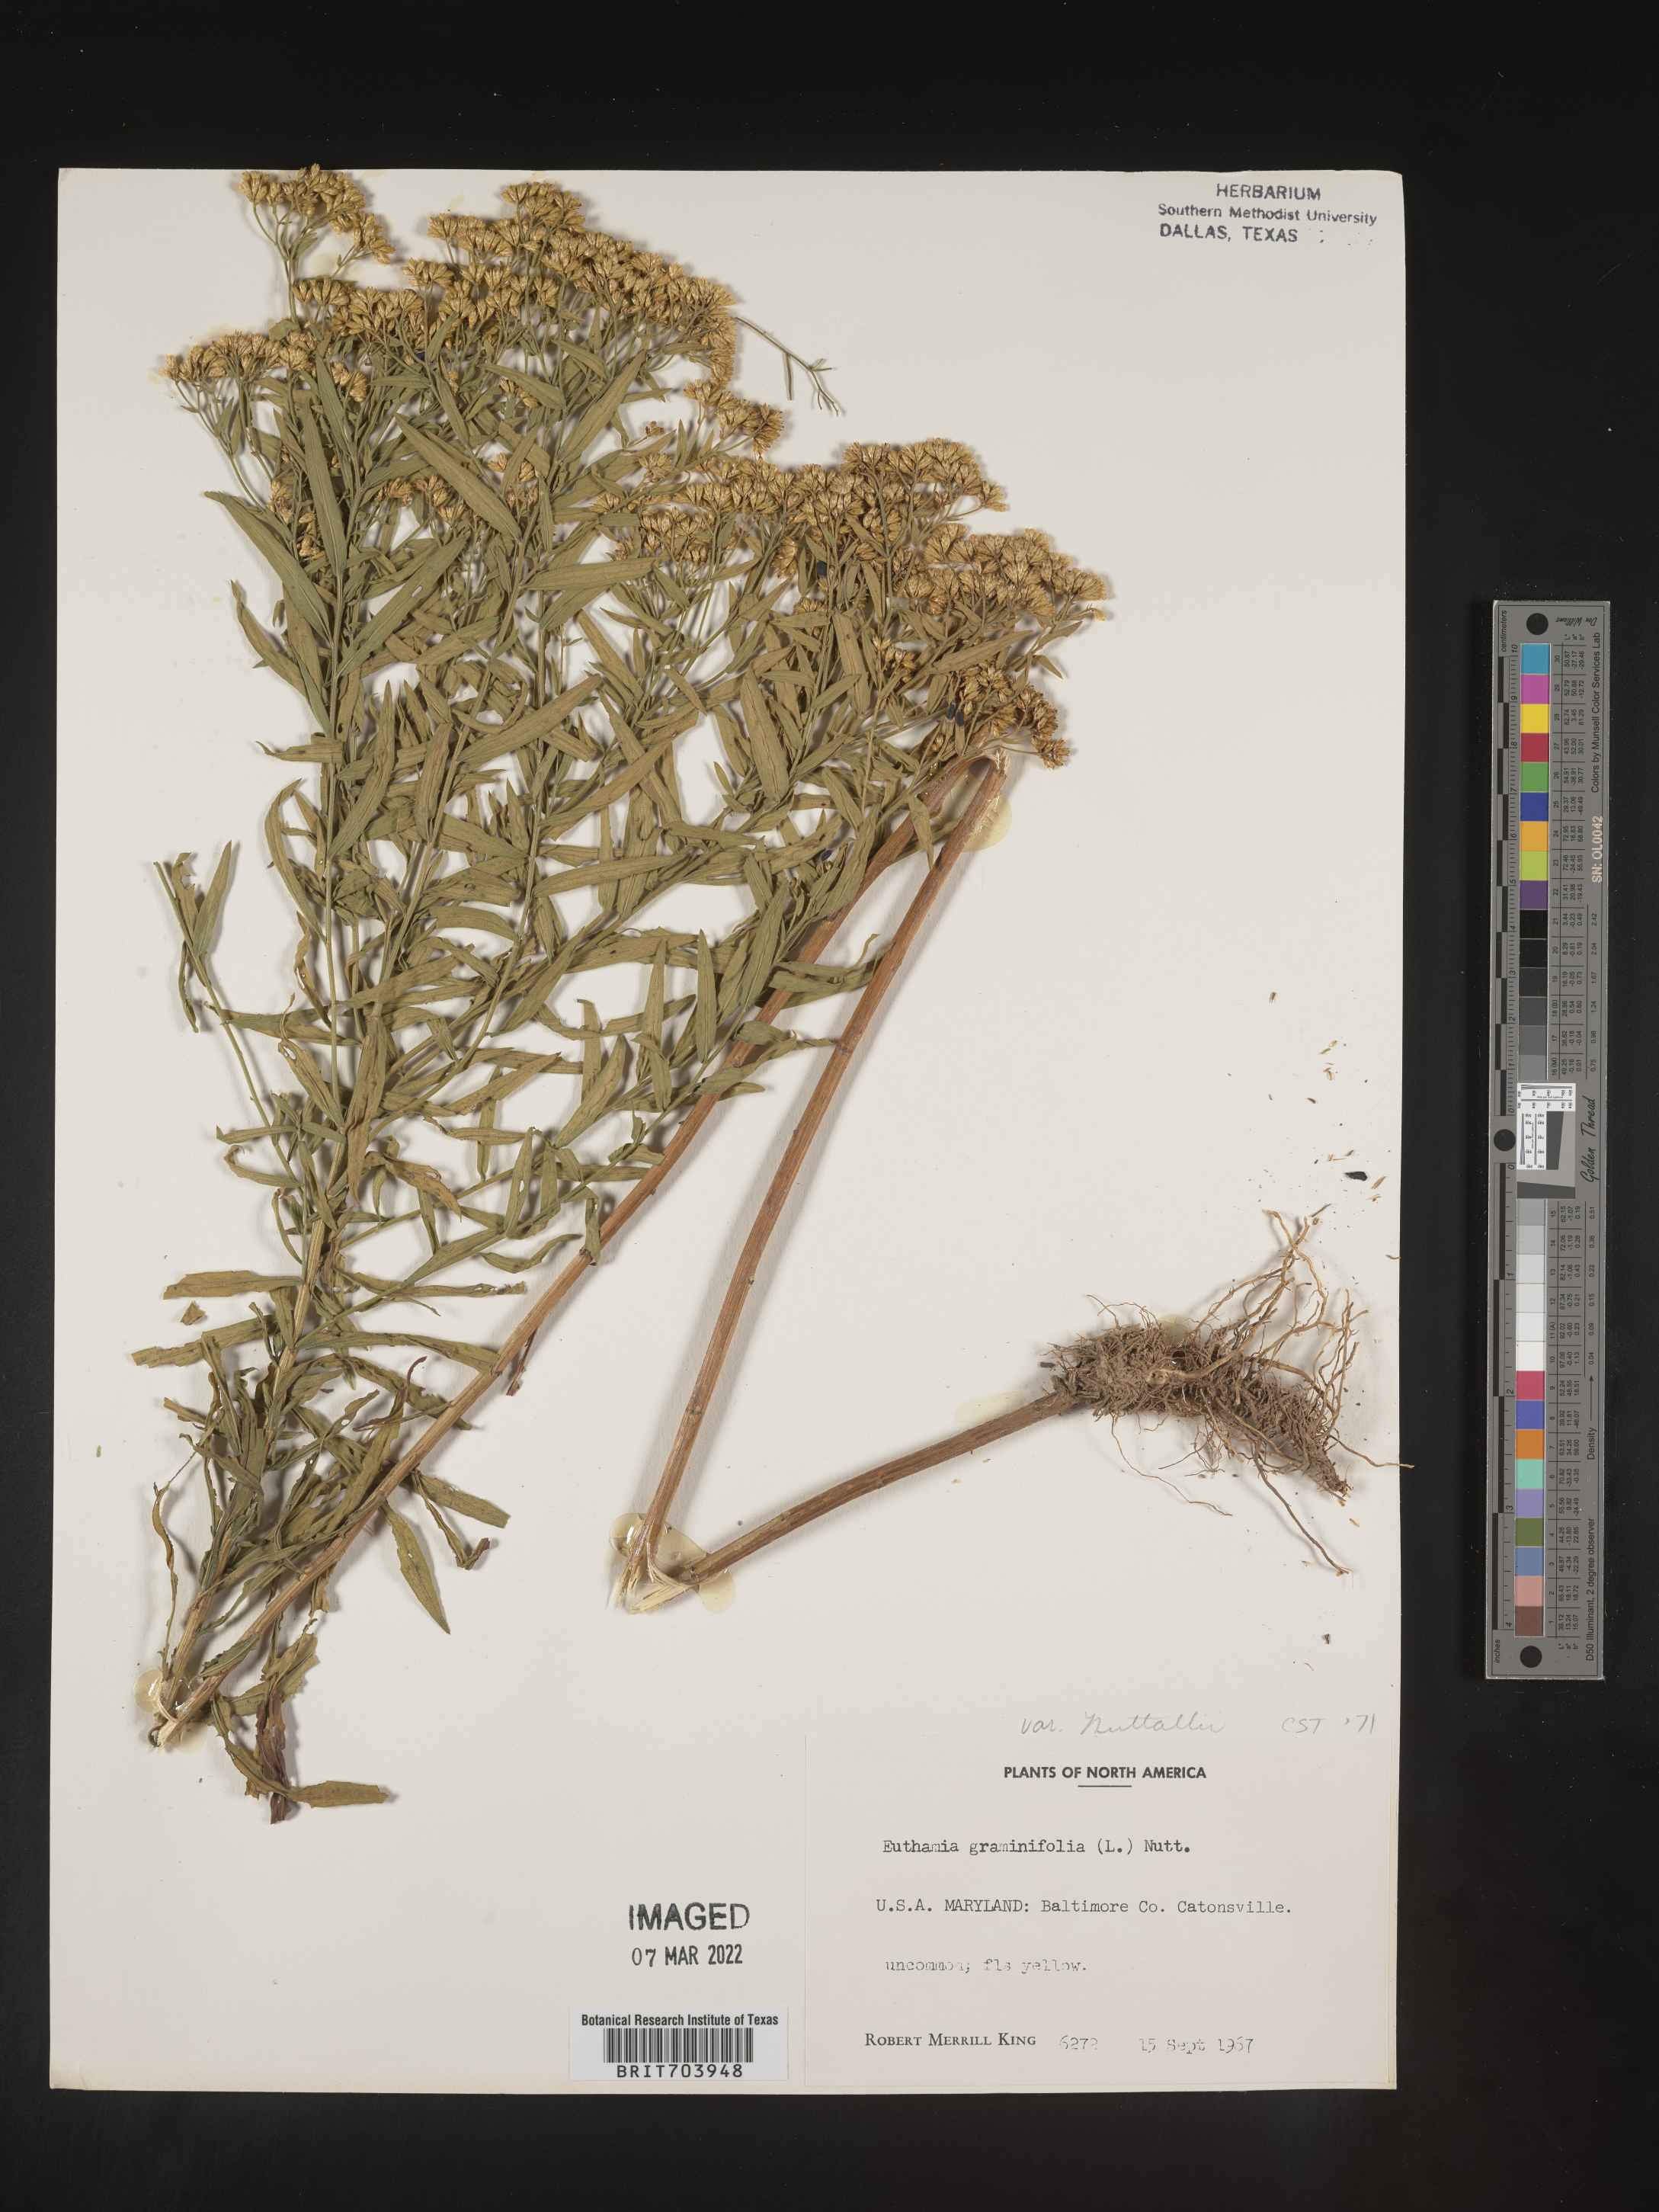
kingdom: Plantae
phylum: Tracheophyta
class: Magnoliopsida
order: Asterales
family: Asteraceae
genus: Euthamia
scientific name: Euthamia graminifolia
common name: Common goldentop
